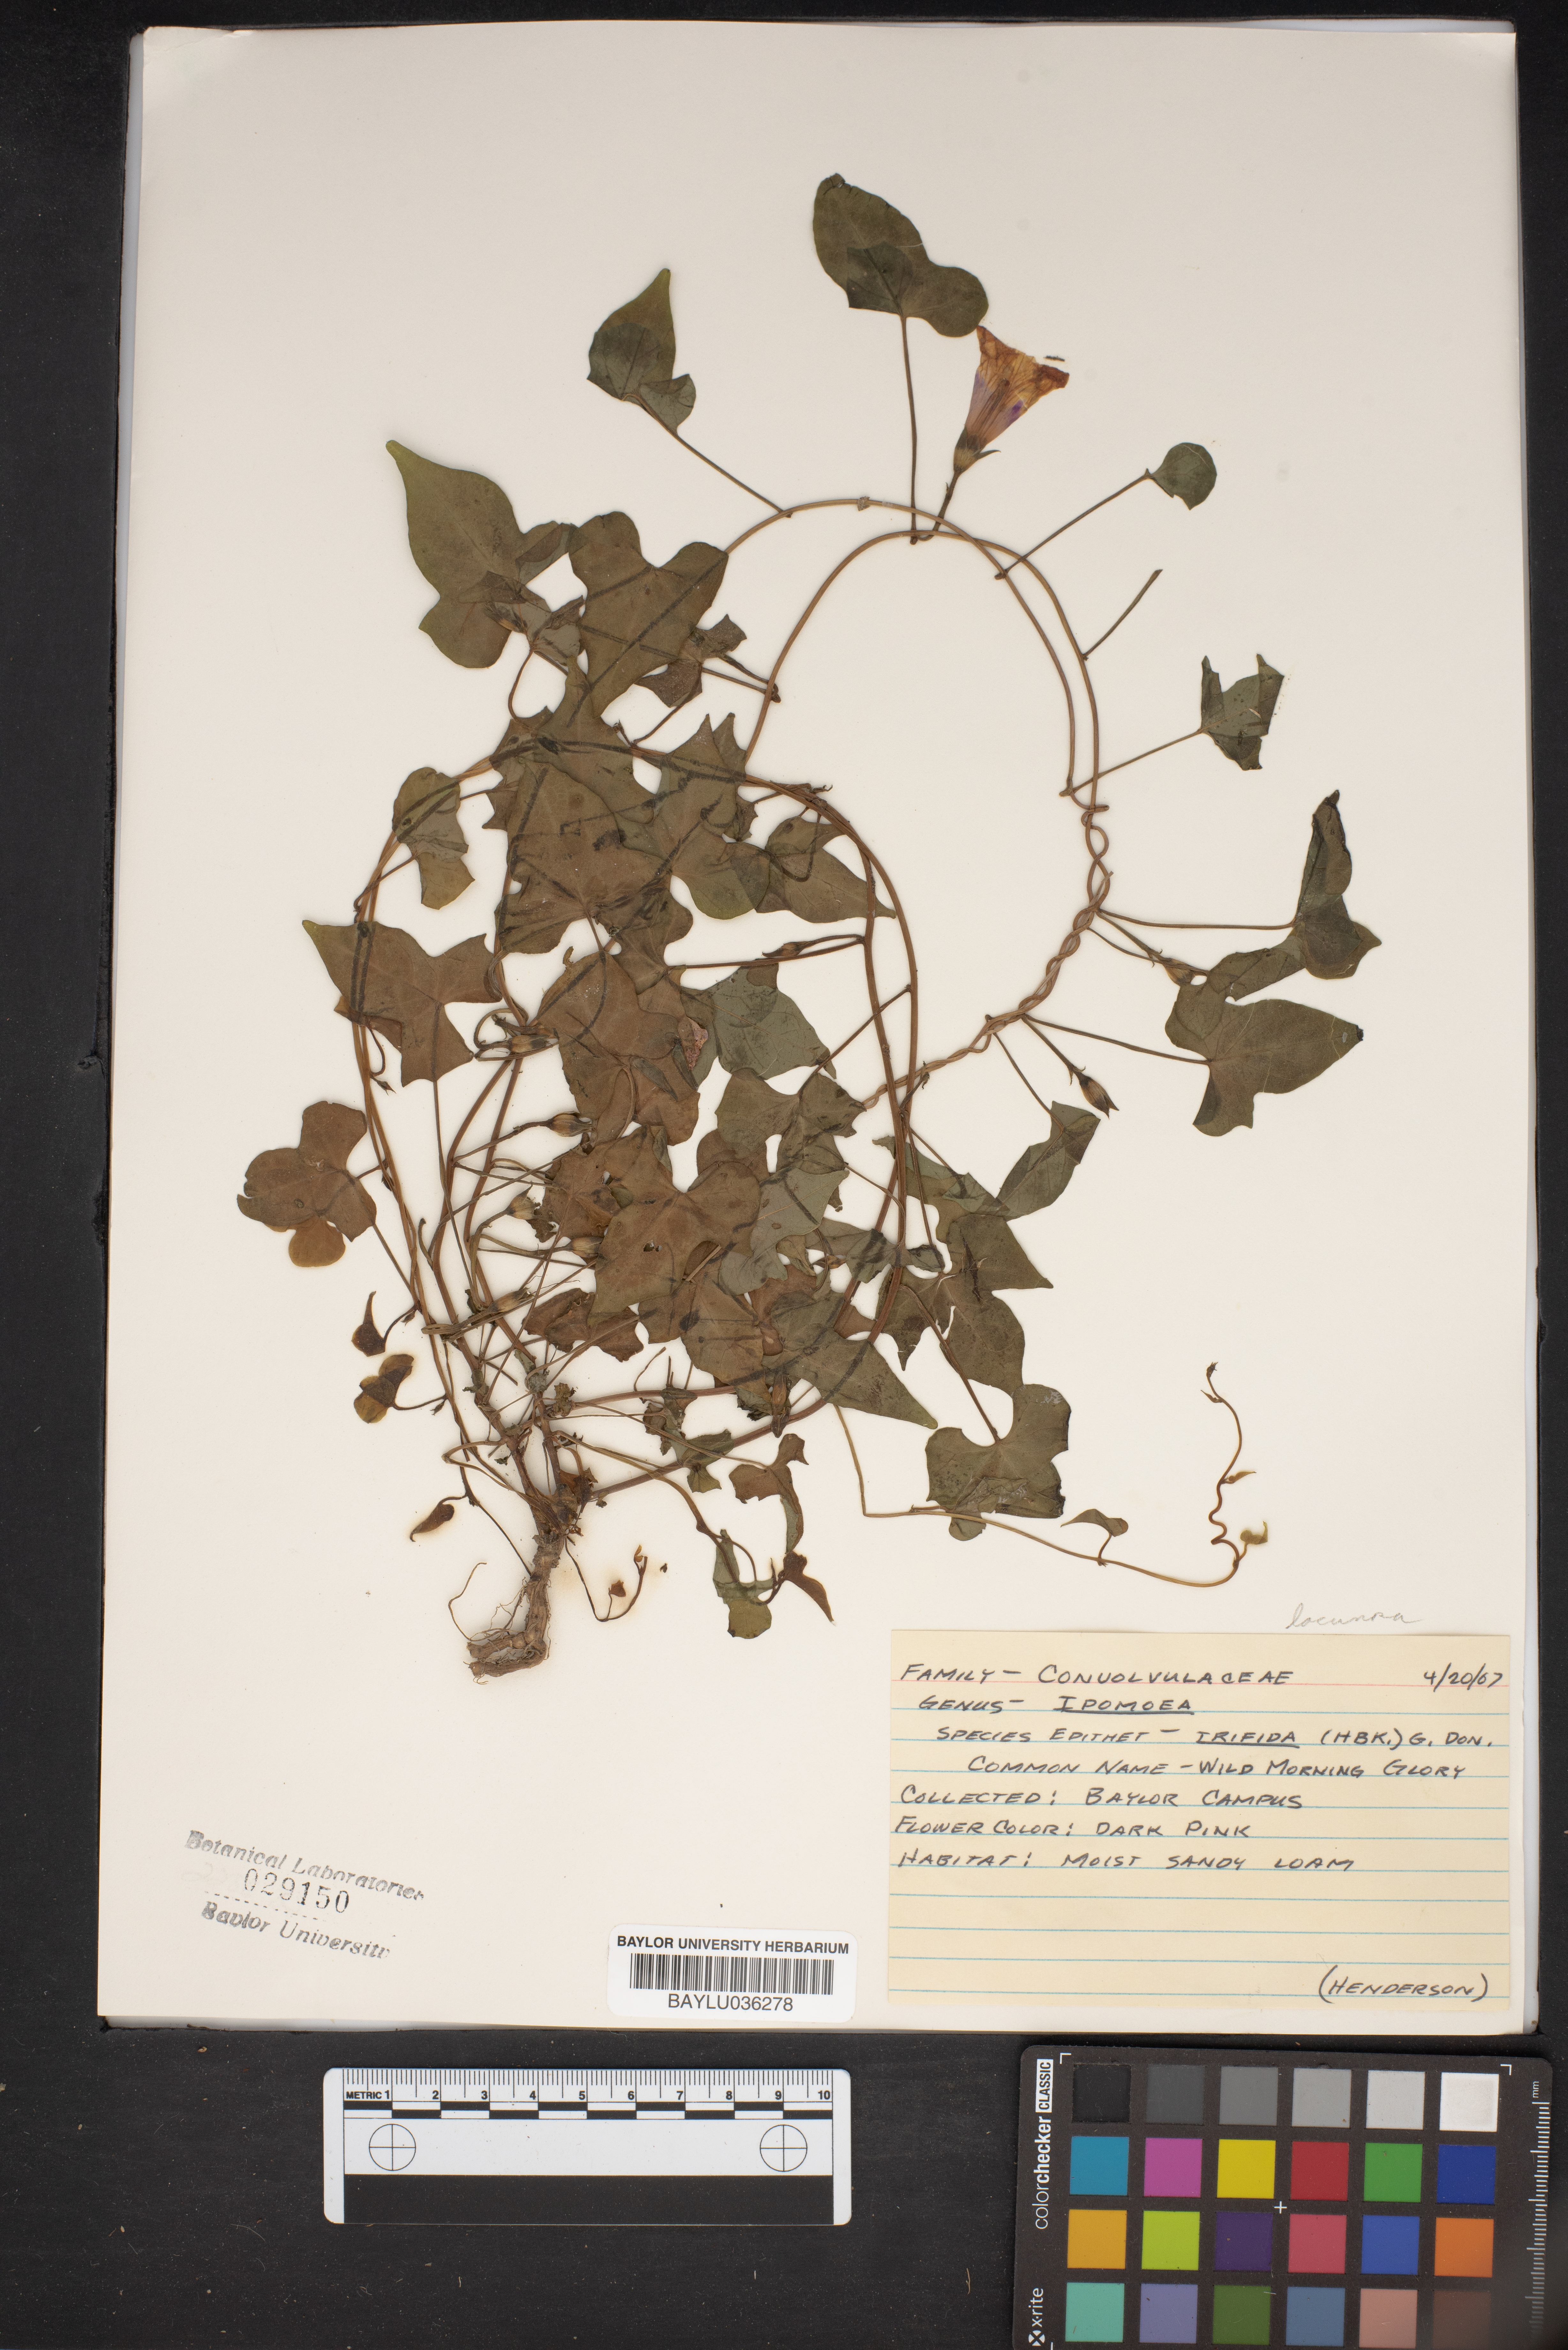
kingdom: Plantae
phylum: Tracheophyta
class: Magnoliopsida
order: Solanales
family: Convolvulaceae
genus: Ipomoea
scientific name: Ipomoea trifida
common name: Cotton morningglory
